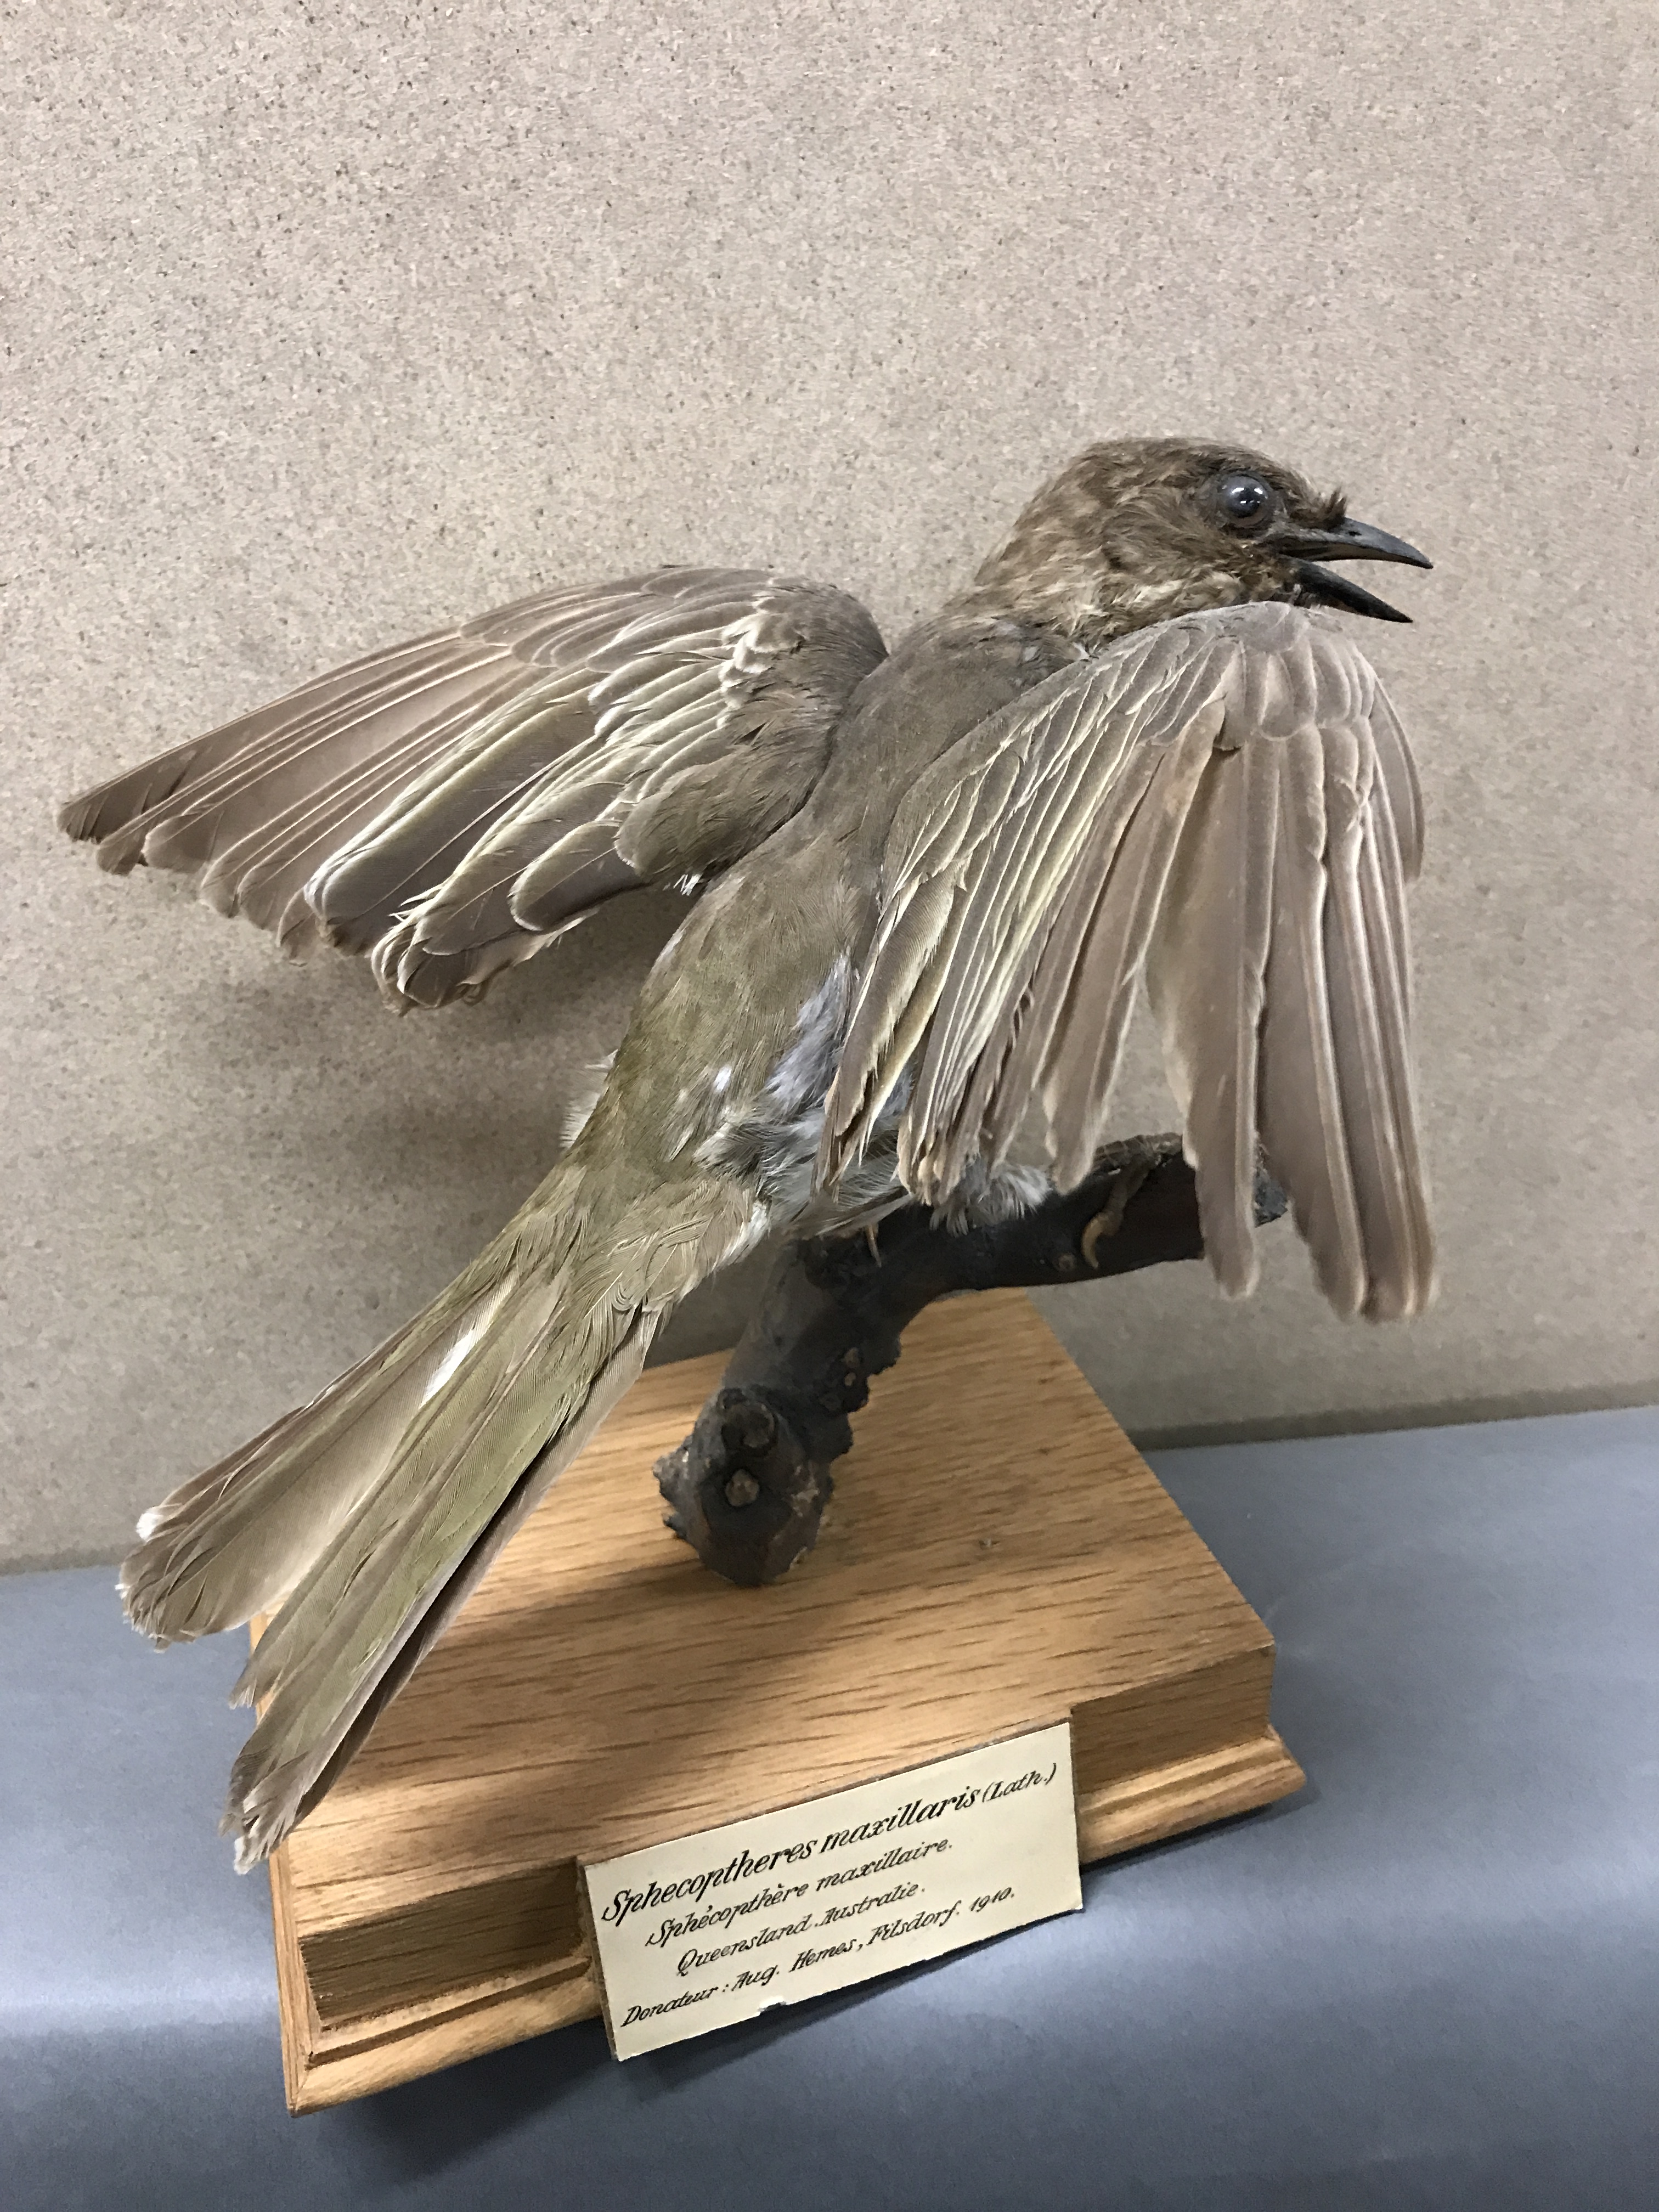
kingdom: Animalia
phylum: Chordata
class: Aves
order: Passeriformes
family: Oriolidae
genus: Sphecotheres
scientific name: Sphecotheres vieilloti
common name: Australasian figbird
